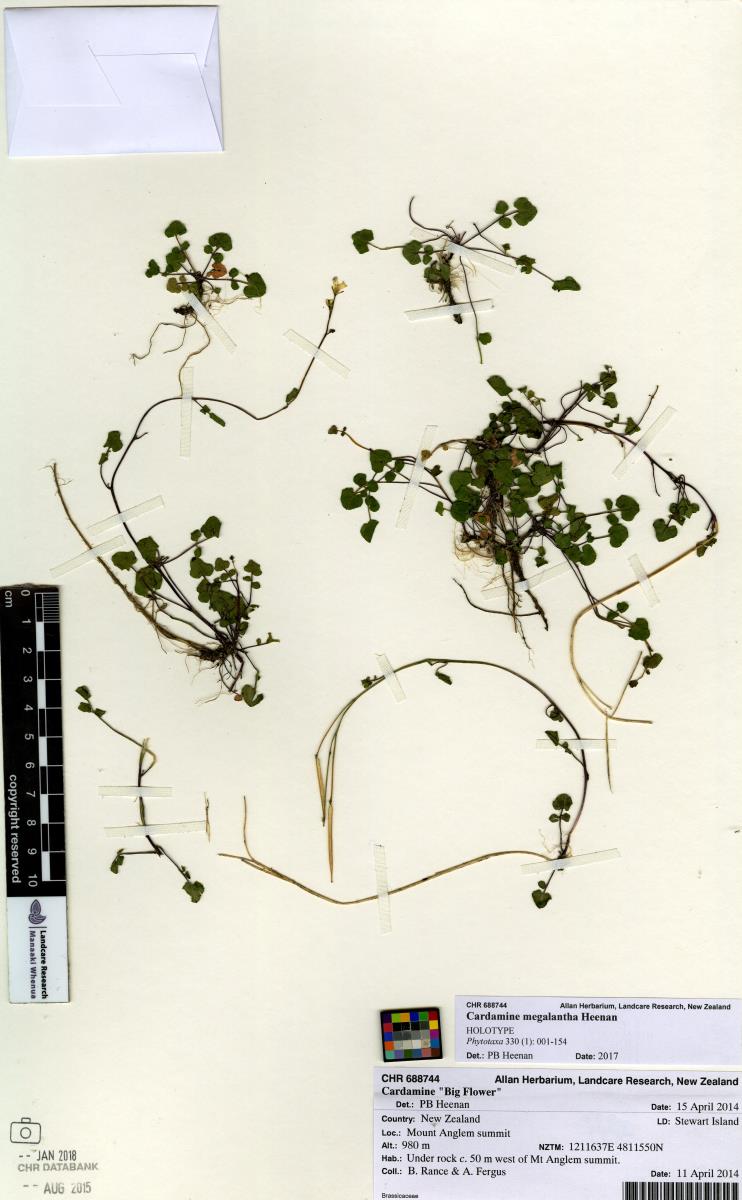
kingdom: Plantae
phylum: Tracheophyta
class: Magnoliopsida
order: Brassicales
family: Brassicaceae
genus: Cardamine
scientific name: Cardamine megalantha
